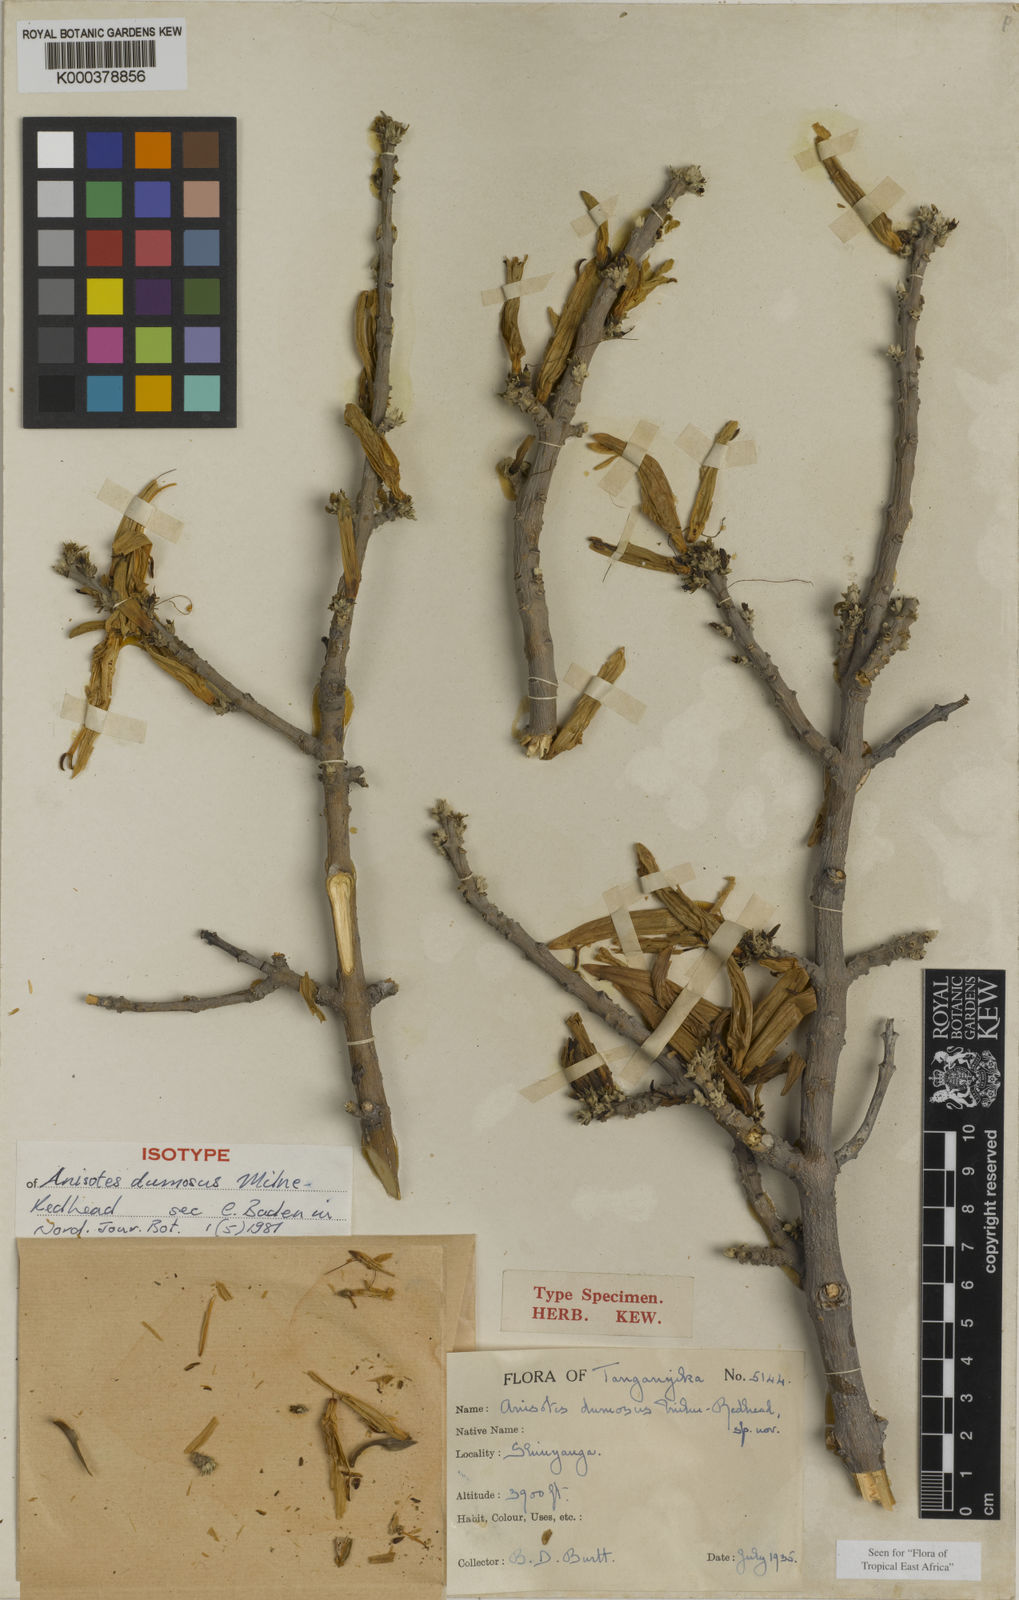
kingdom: Plantae
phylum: Tracheophyta
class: Magnoliopsida
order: Lamiales
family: Acanthaceae
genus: Anisotes
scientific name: Anisotes dumosus
